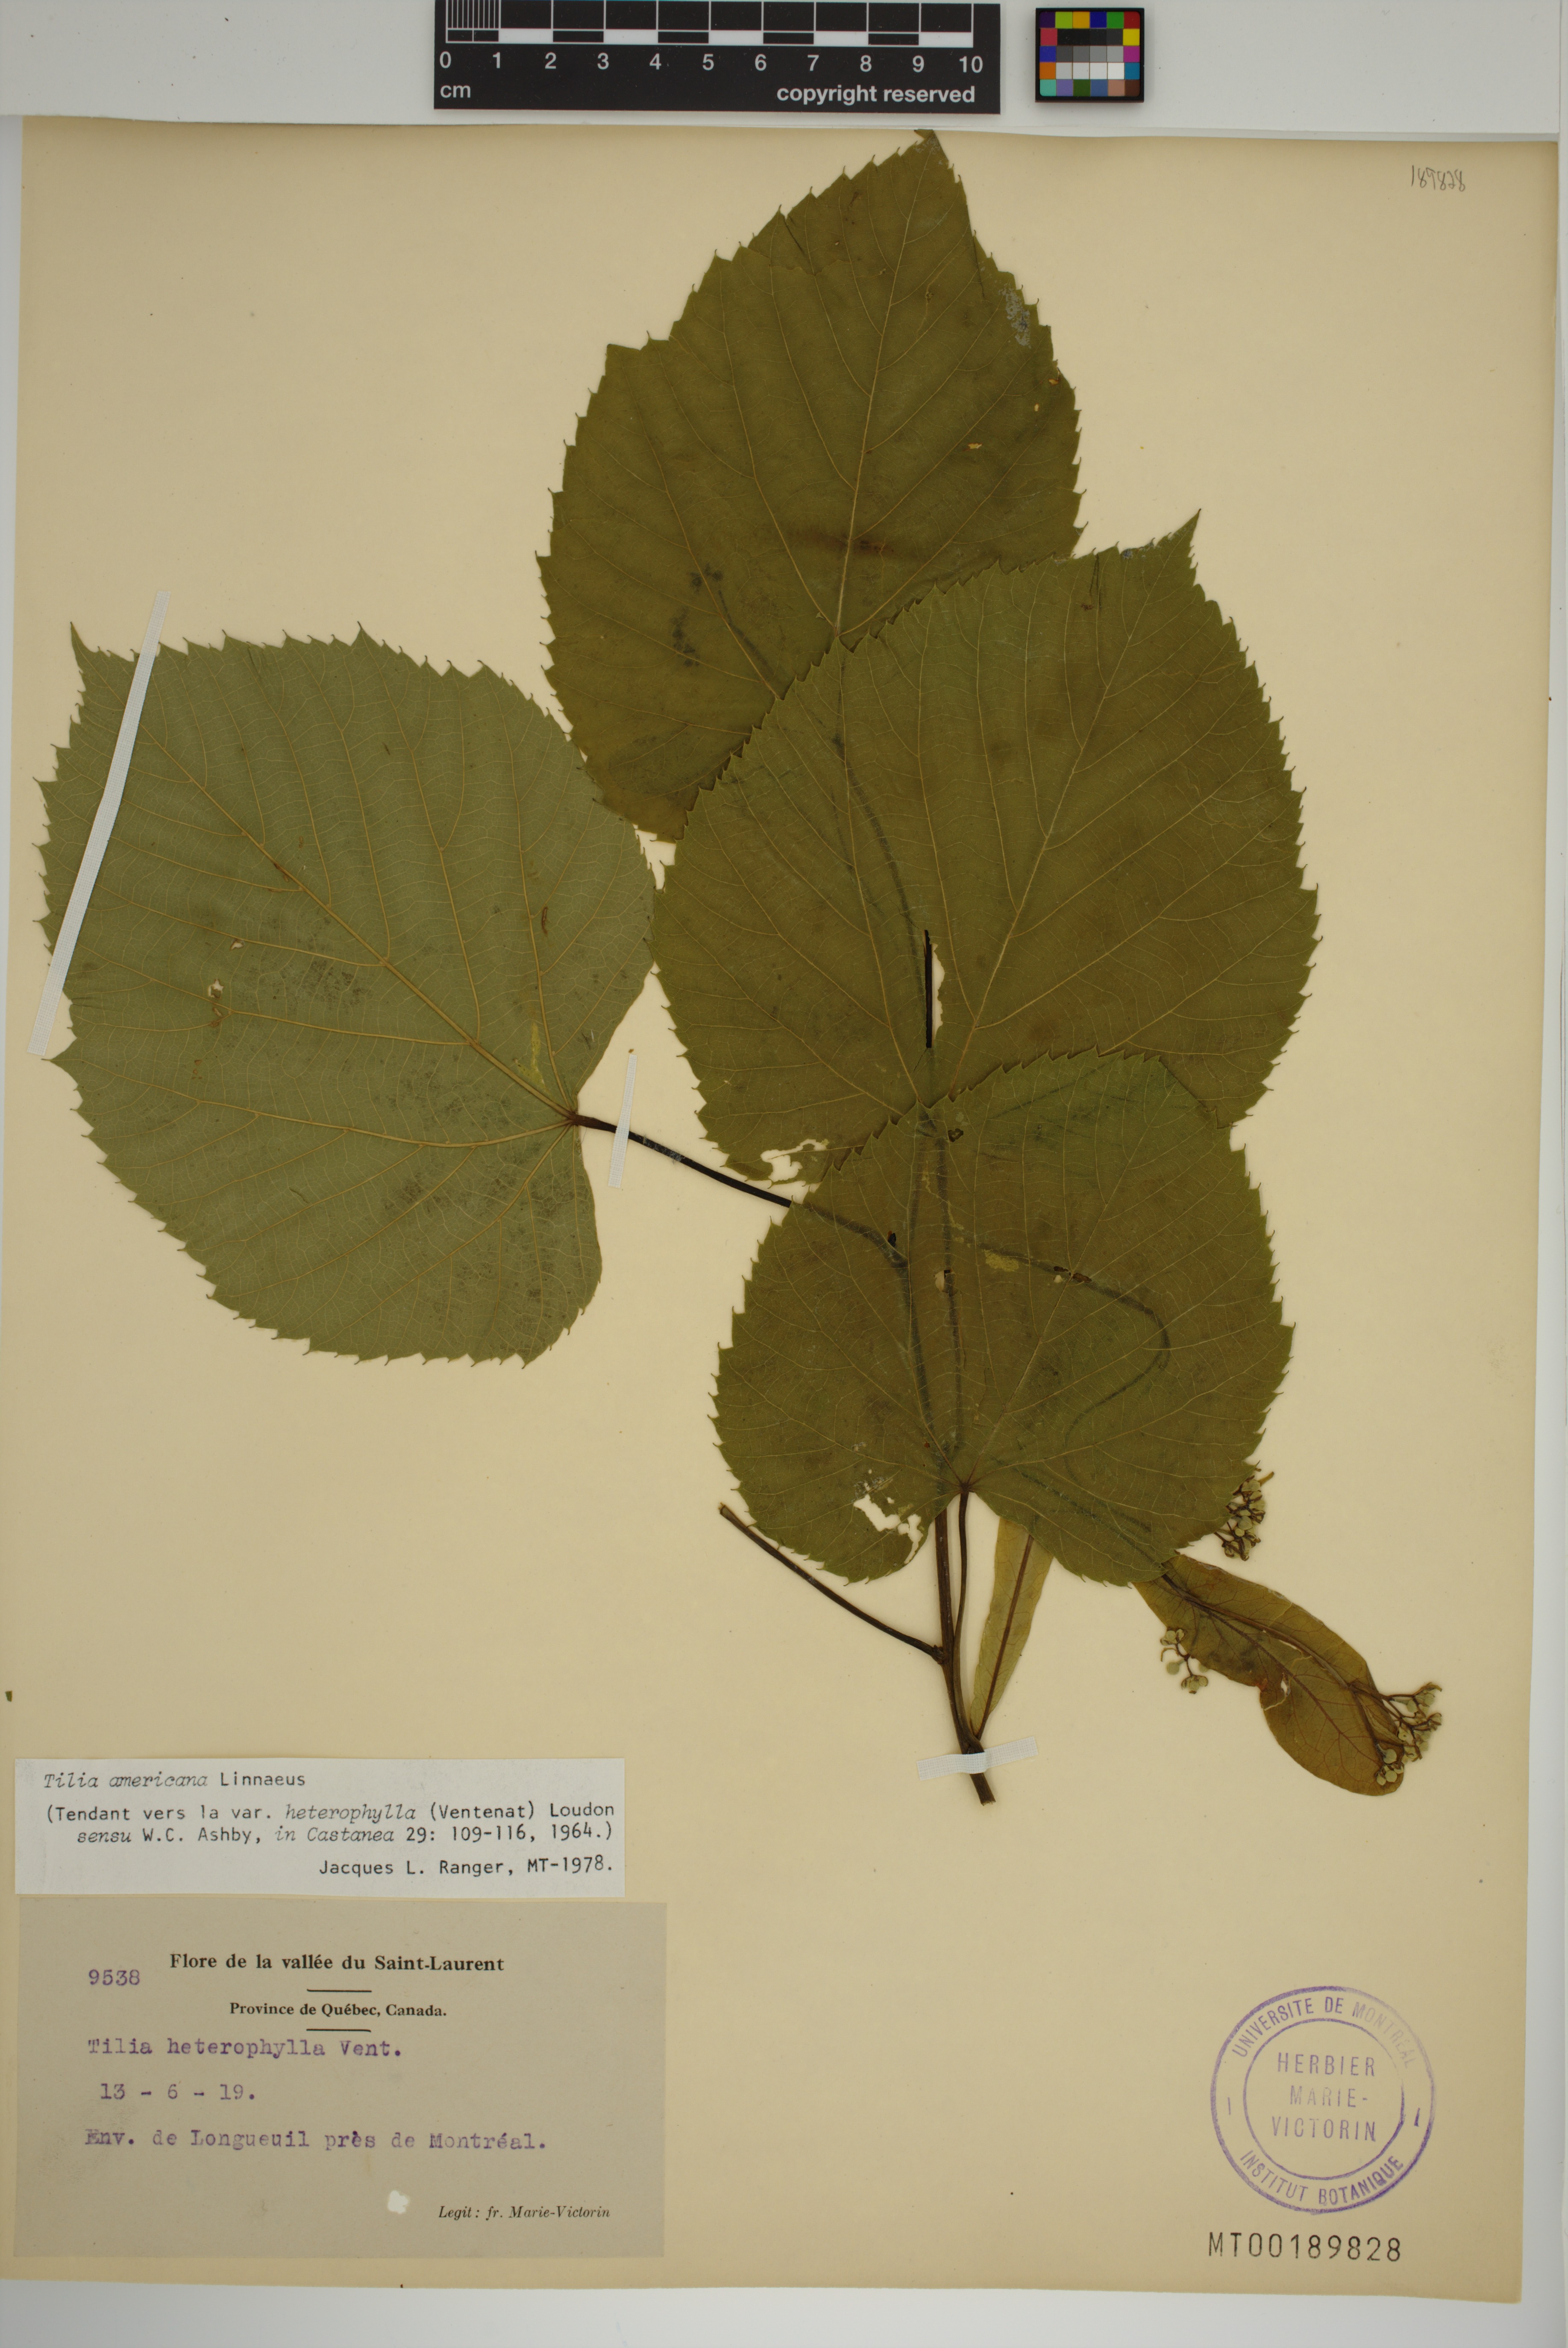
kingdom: Plantae
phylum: Tracheophyta
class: Magnoliopsida
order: Malvales
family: Malvaceae
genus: Tilia
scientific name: Tilia americana
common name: Basswood
